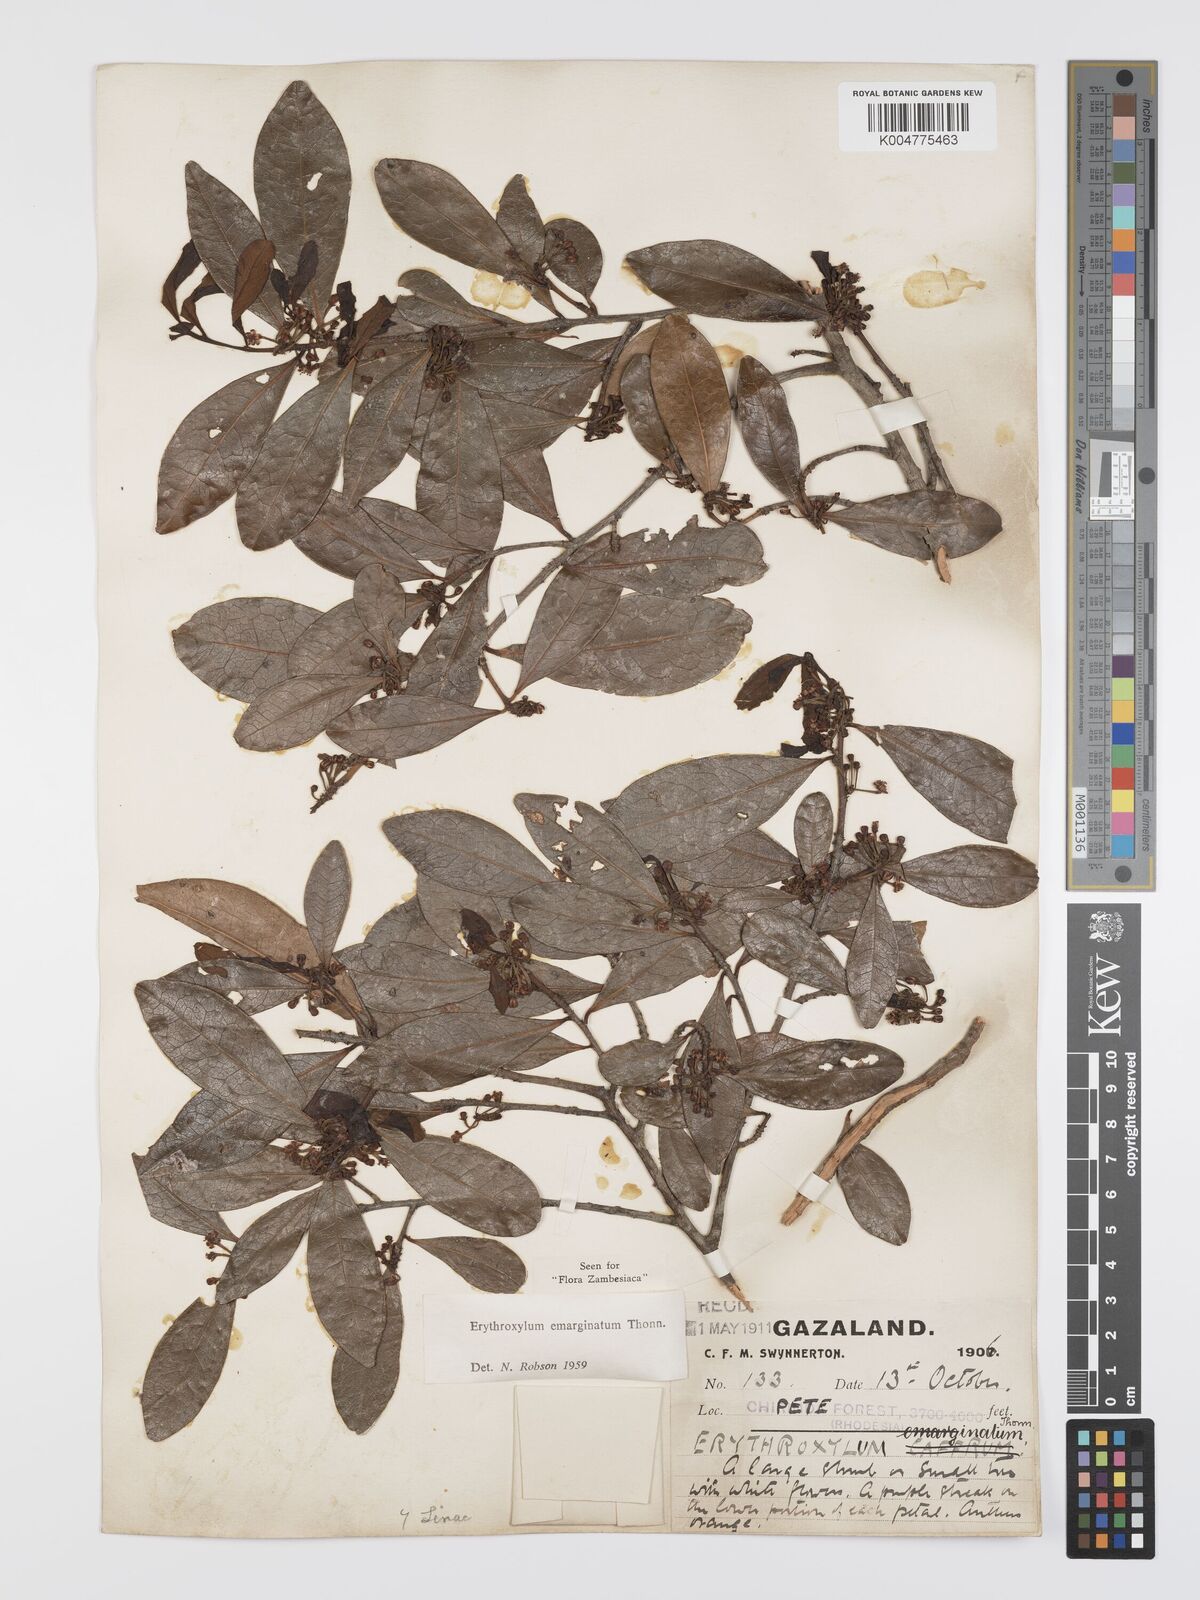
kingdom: Plantae
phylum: Tracheophyta
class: Magnoliopsida
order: Malpighiales
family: Erythroxylaceae
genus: Erythroxylum
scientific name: Erythroxylum emarginatum
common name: African coca-tree
